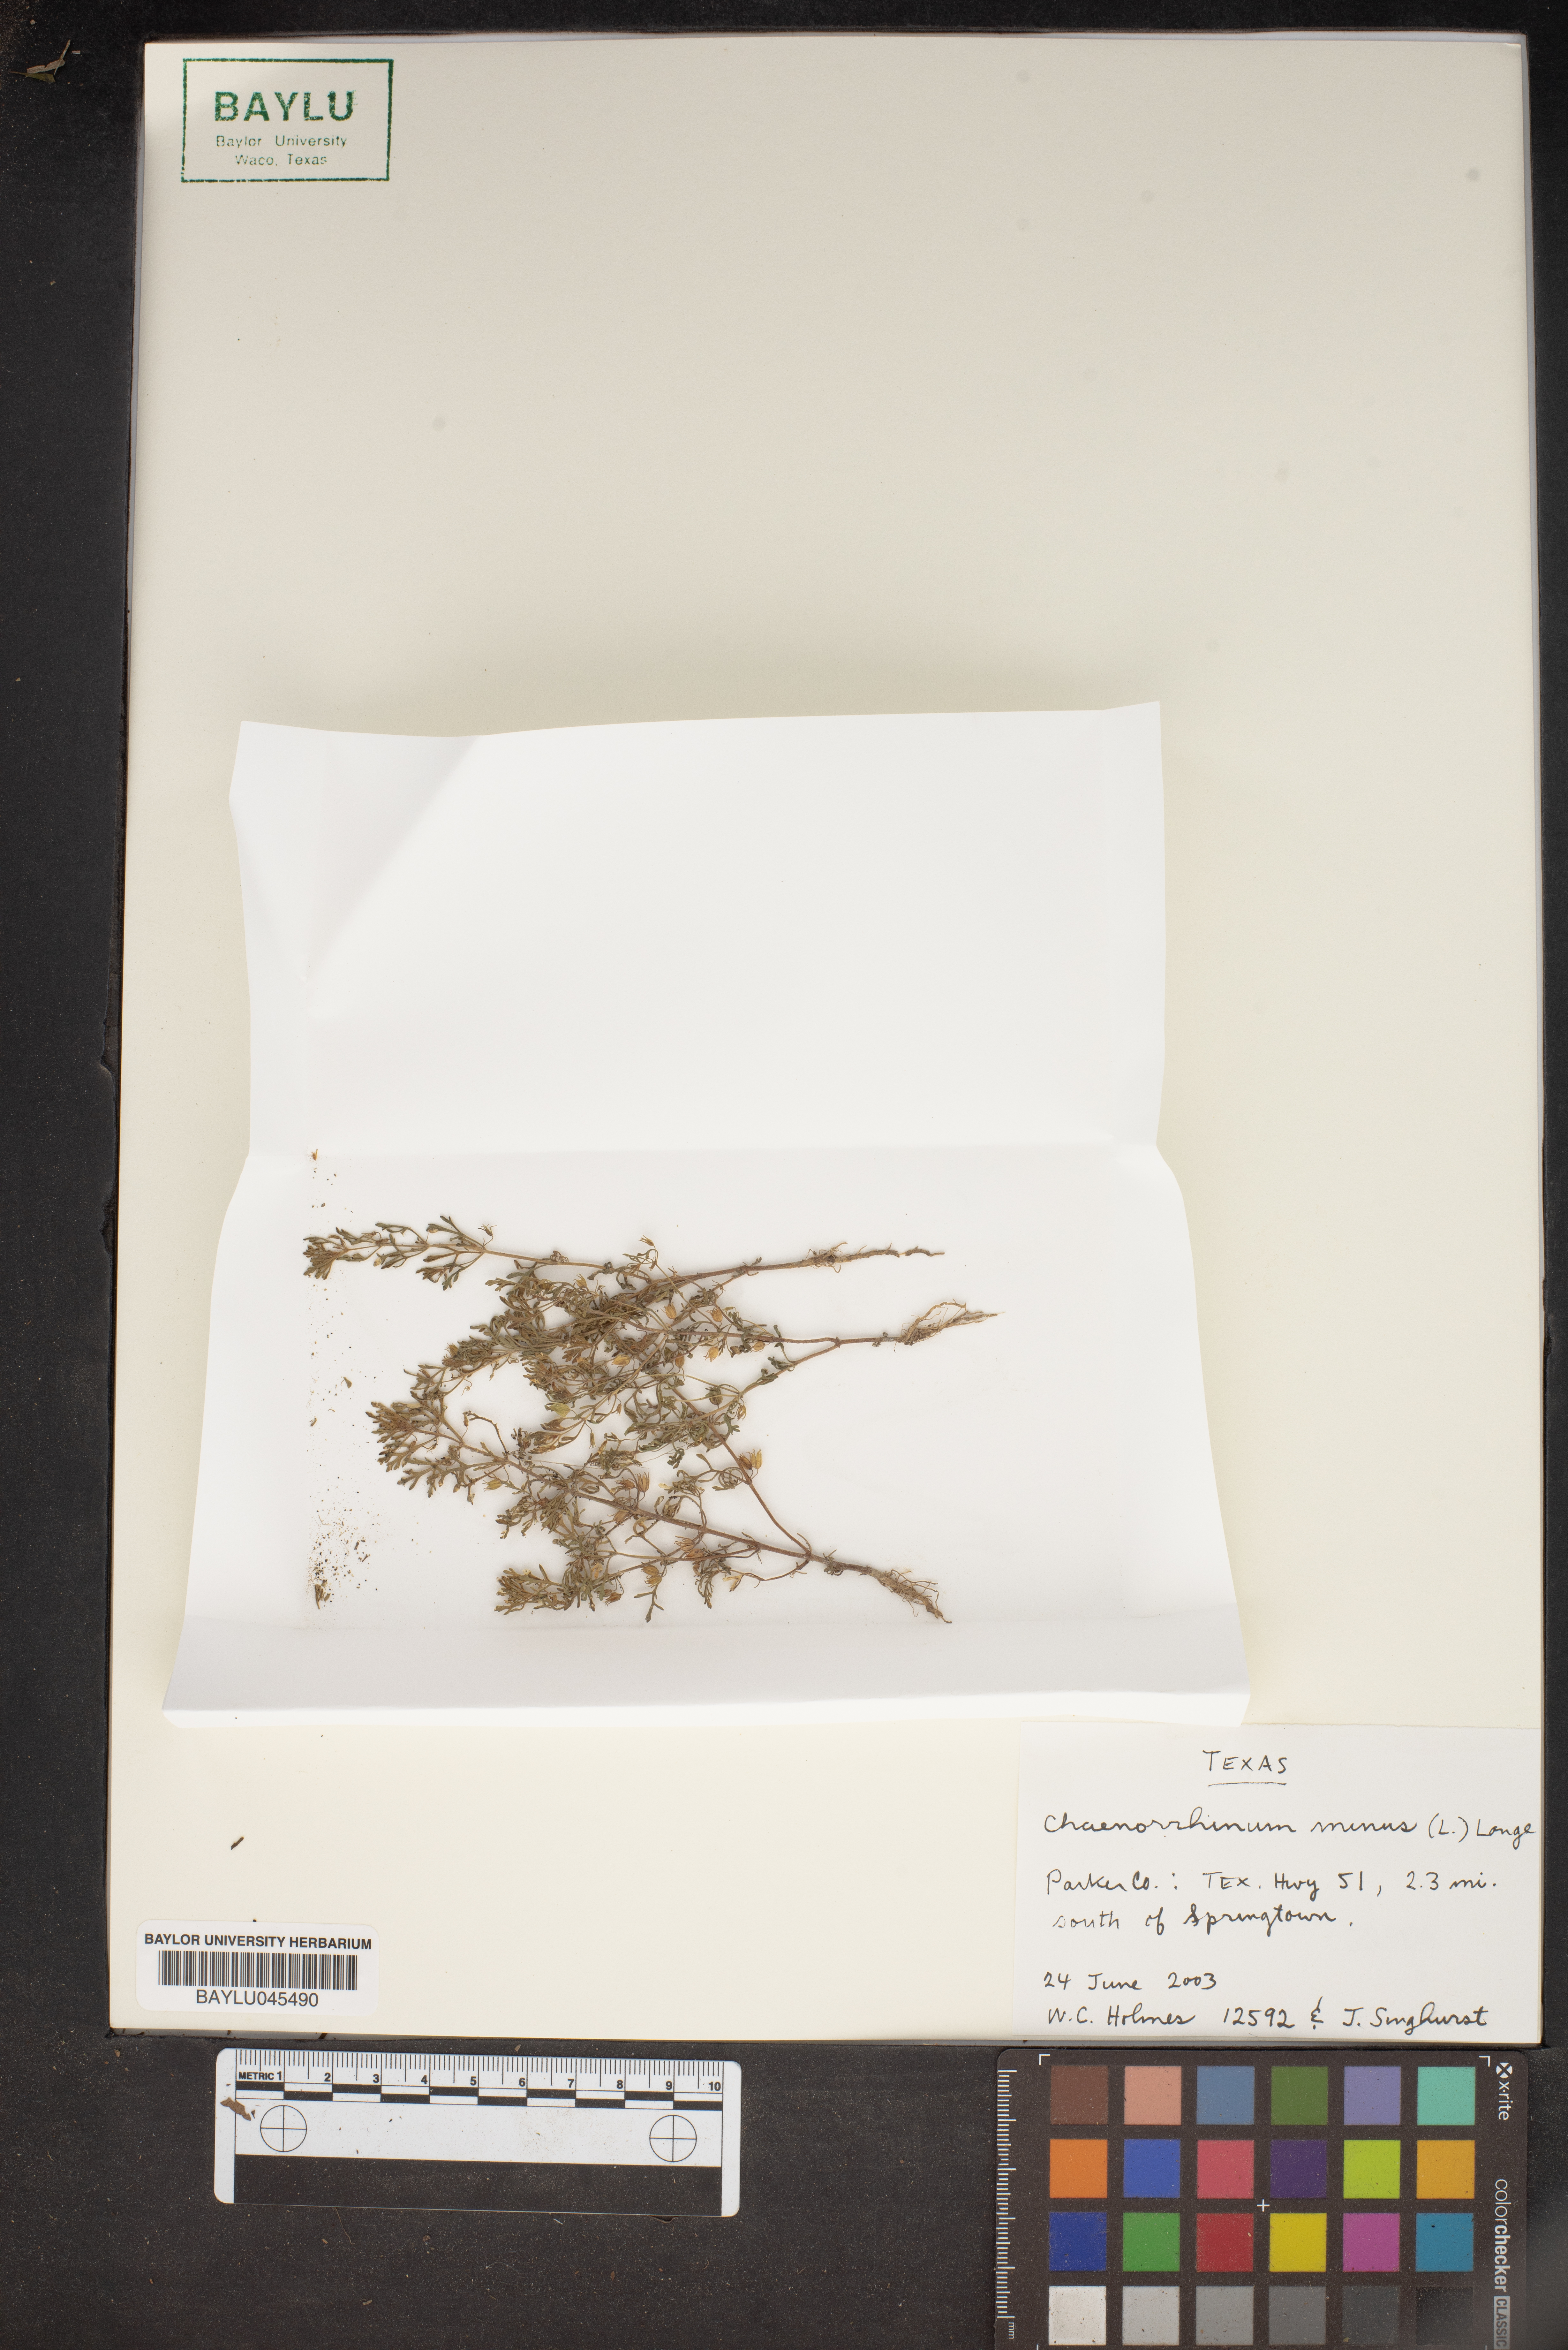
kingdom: Plantae
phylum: Tracheophyta
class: Magnoliopsida
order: Lamiales
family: Plantaginaceae
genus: Chaenorhinum
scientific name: Chaenorhinum minus
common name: Dwarf snapdragon
